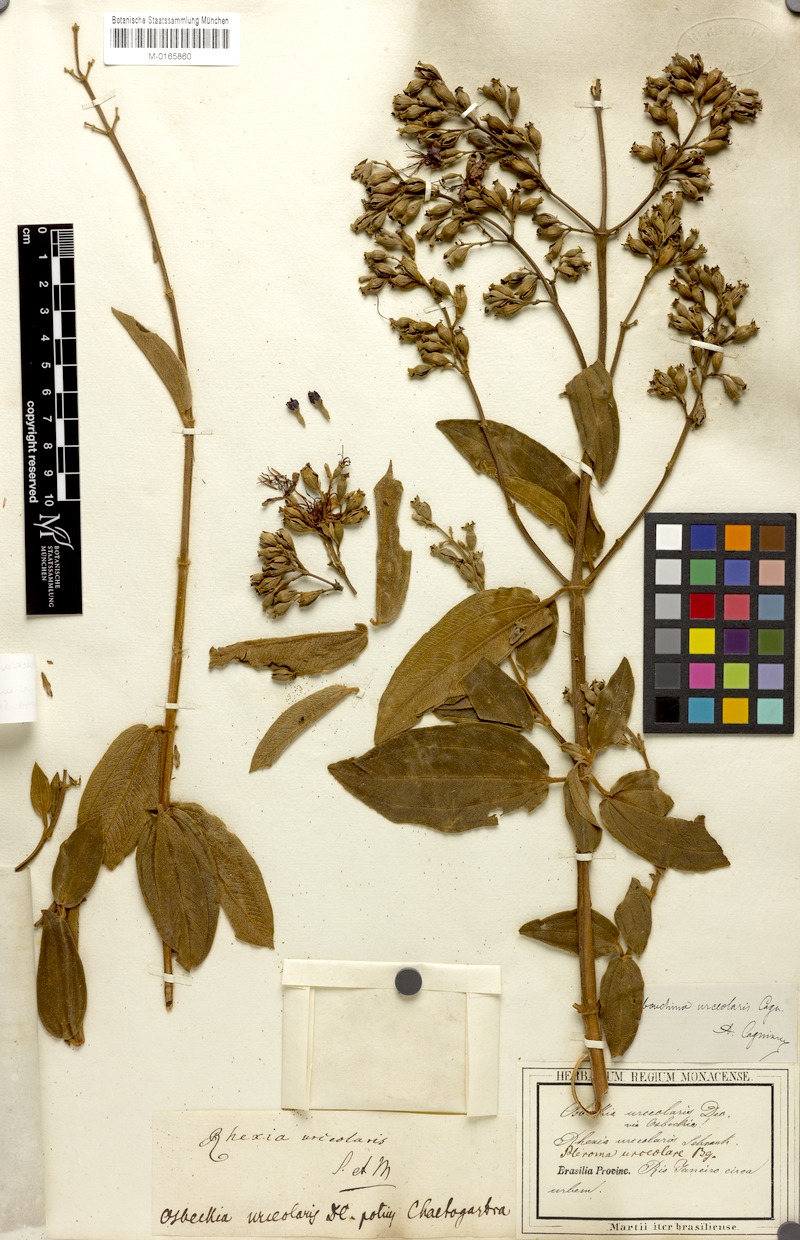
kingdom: Plantae
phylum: Tracheophyta
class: Magnoliopsida
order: Myrtales
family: Melastomataceae
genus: Pleroma
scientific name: Pleroma urceolare
